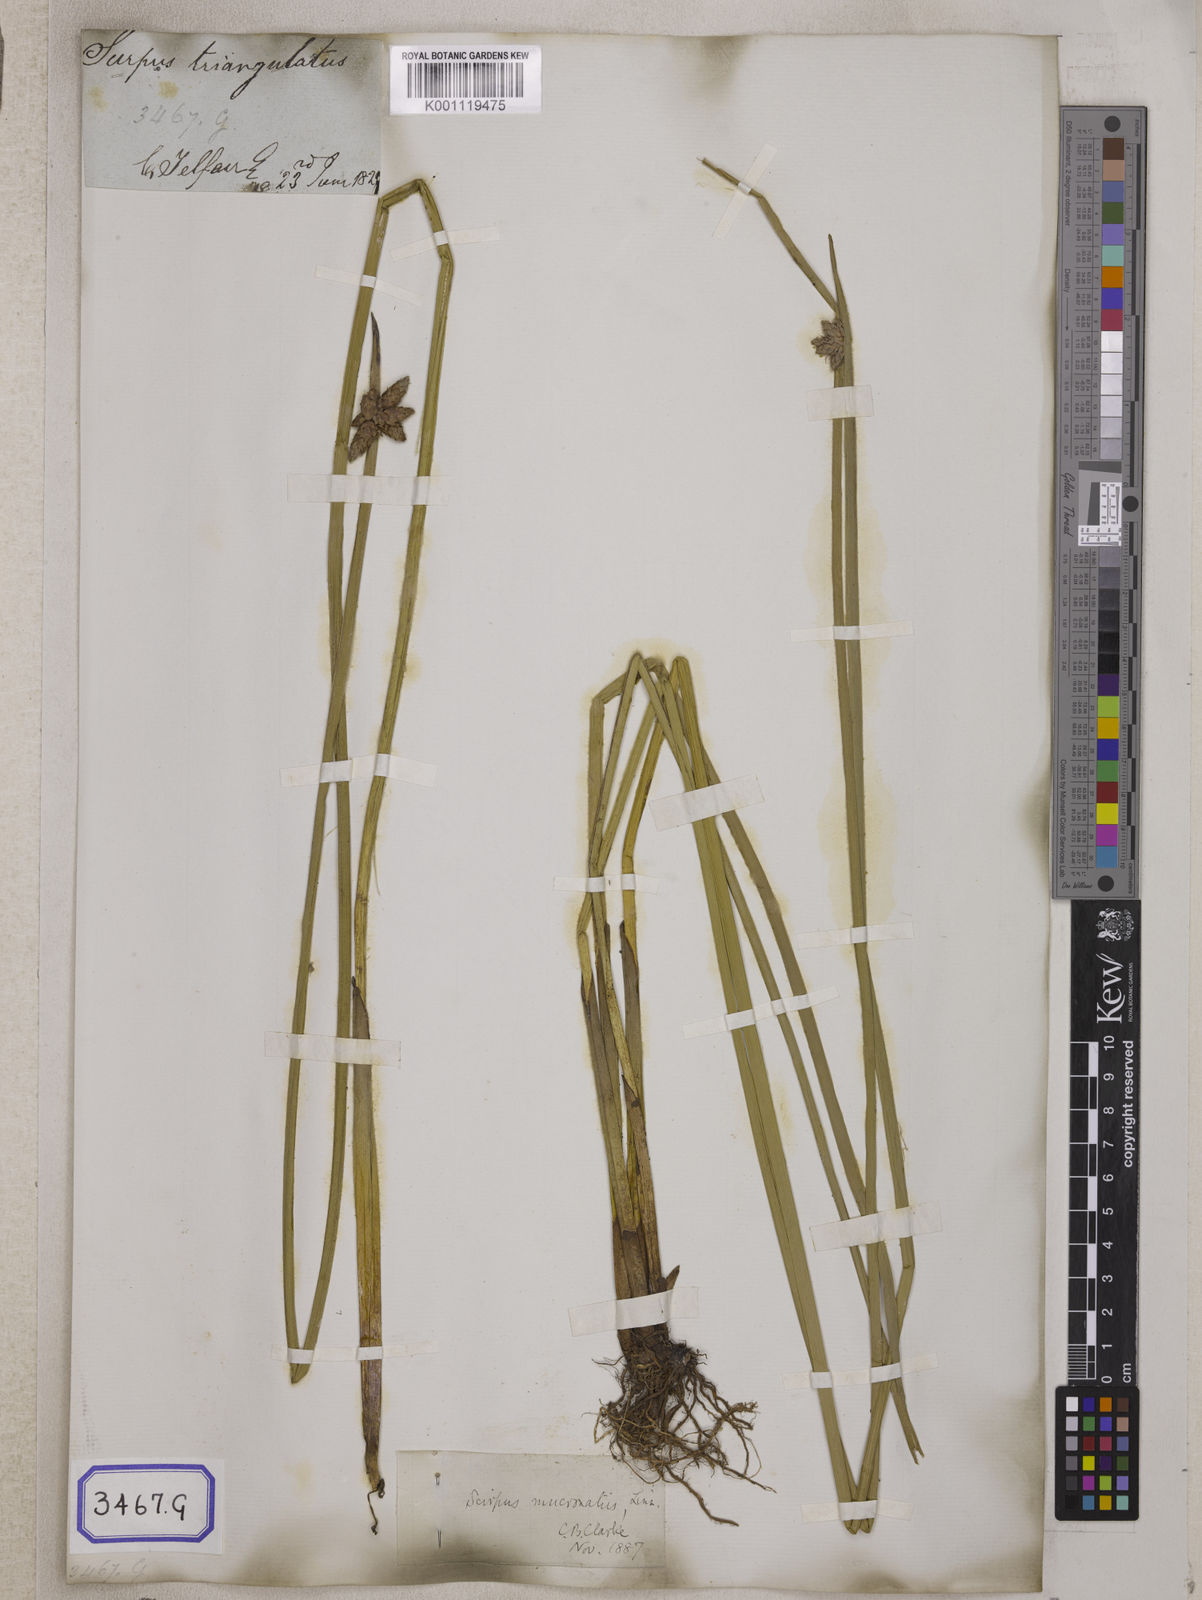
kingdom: Plantae
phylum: Tracheophyta
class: Liliopsida
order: Poales
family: Cyperaceae
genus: Scirpus
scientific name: Scirpus
